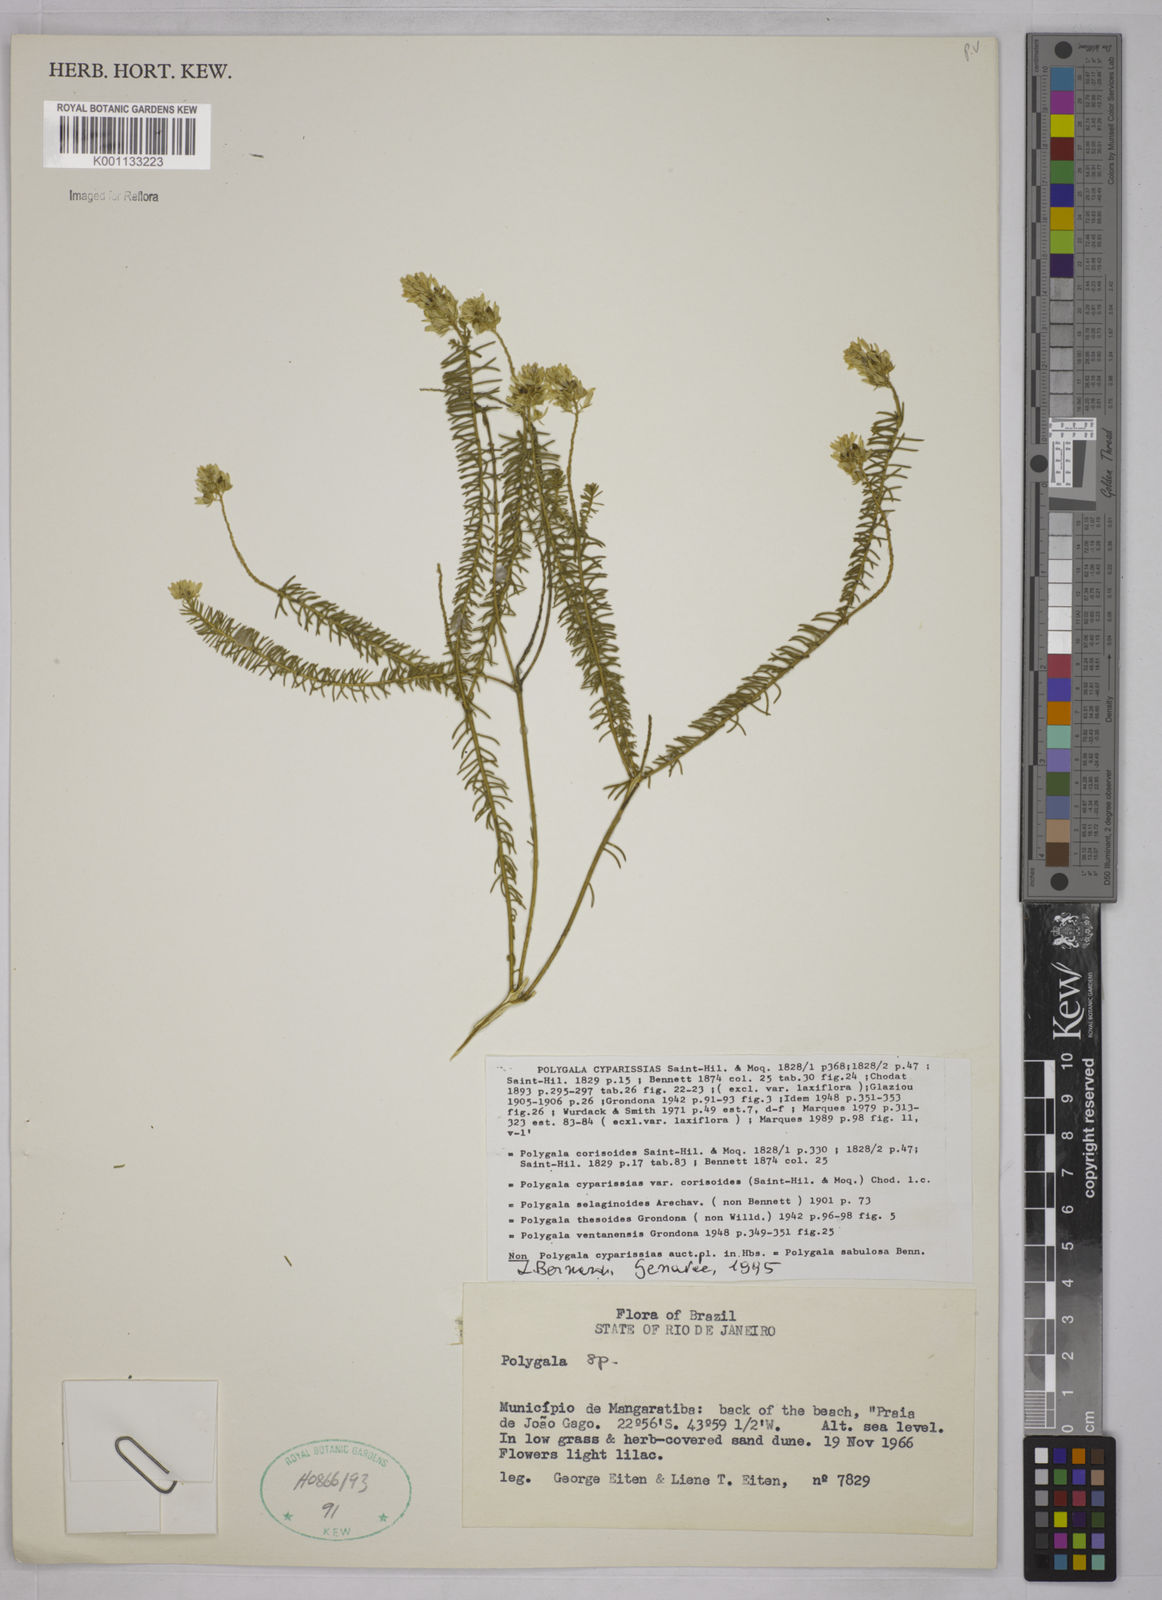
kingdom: Plantae
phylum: Tracheophyta
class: Magnoliopsida
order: Fabales
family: Polygalaceae
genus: Polygala
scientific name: Polygala cyparissias
